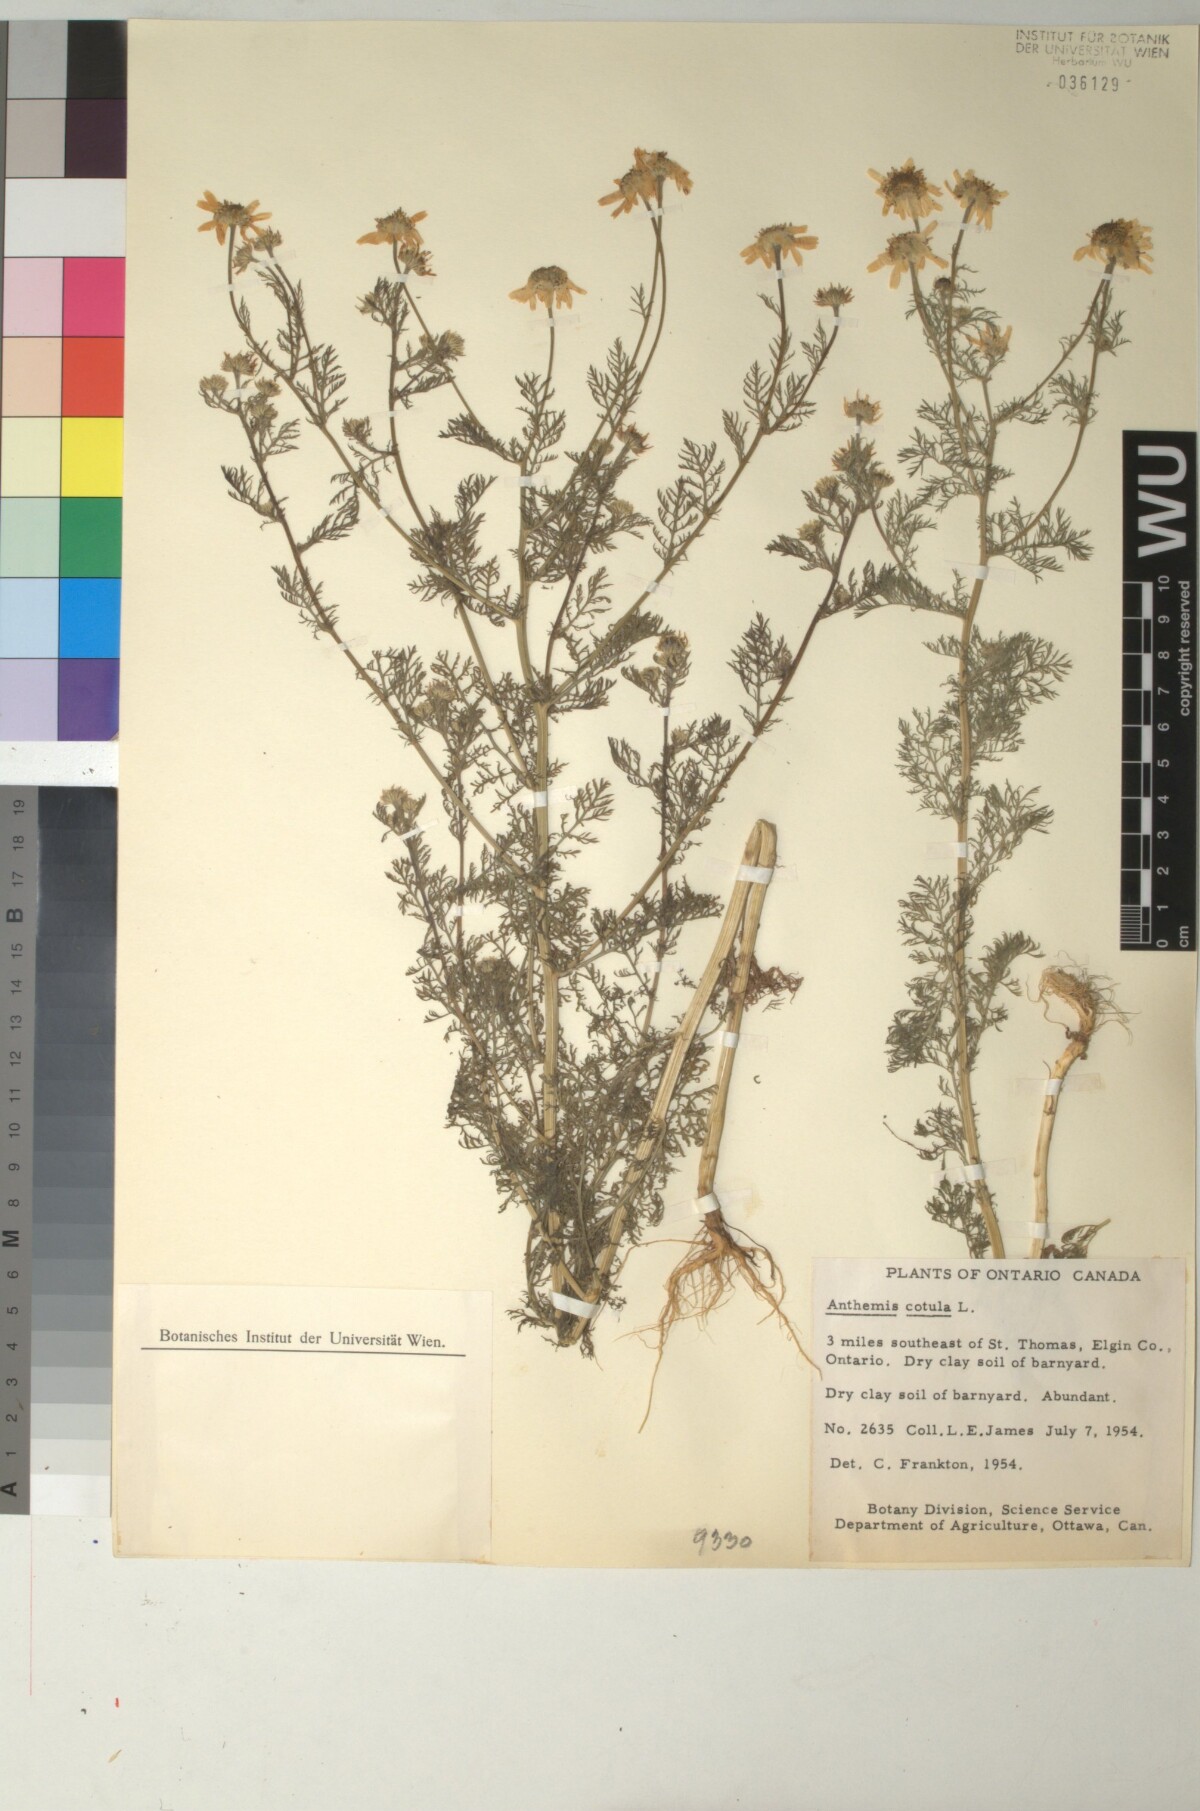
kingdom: Plantae
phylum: Tracheophyta
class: Magnoliopsida
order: Asterales
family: Asteraceae
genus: Anthemis
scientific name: Anthemis cotula
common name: Stinking chamomile
